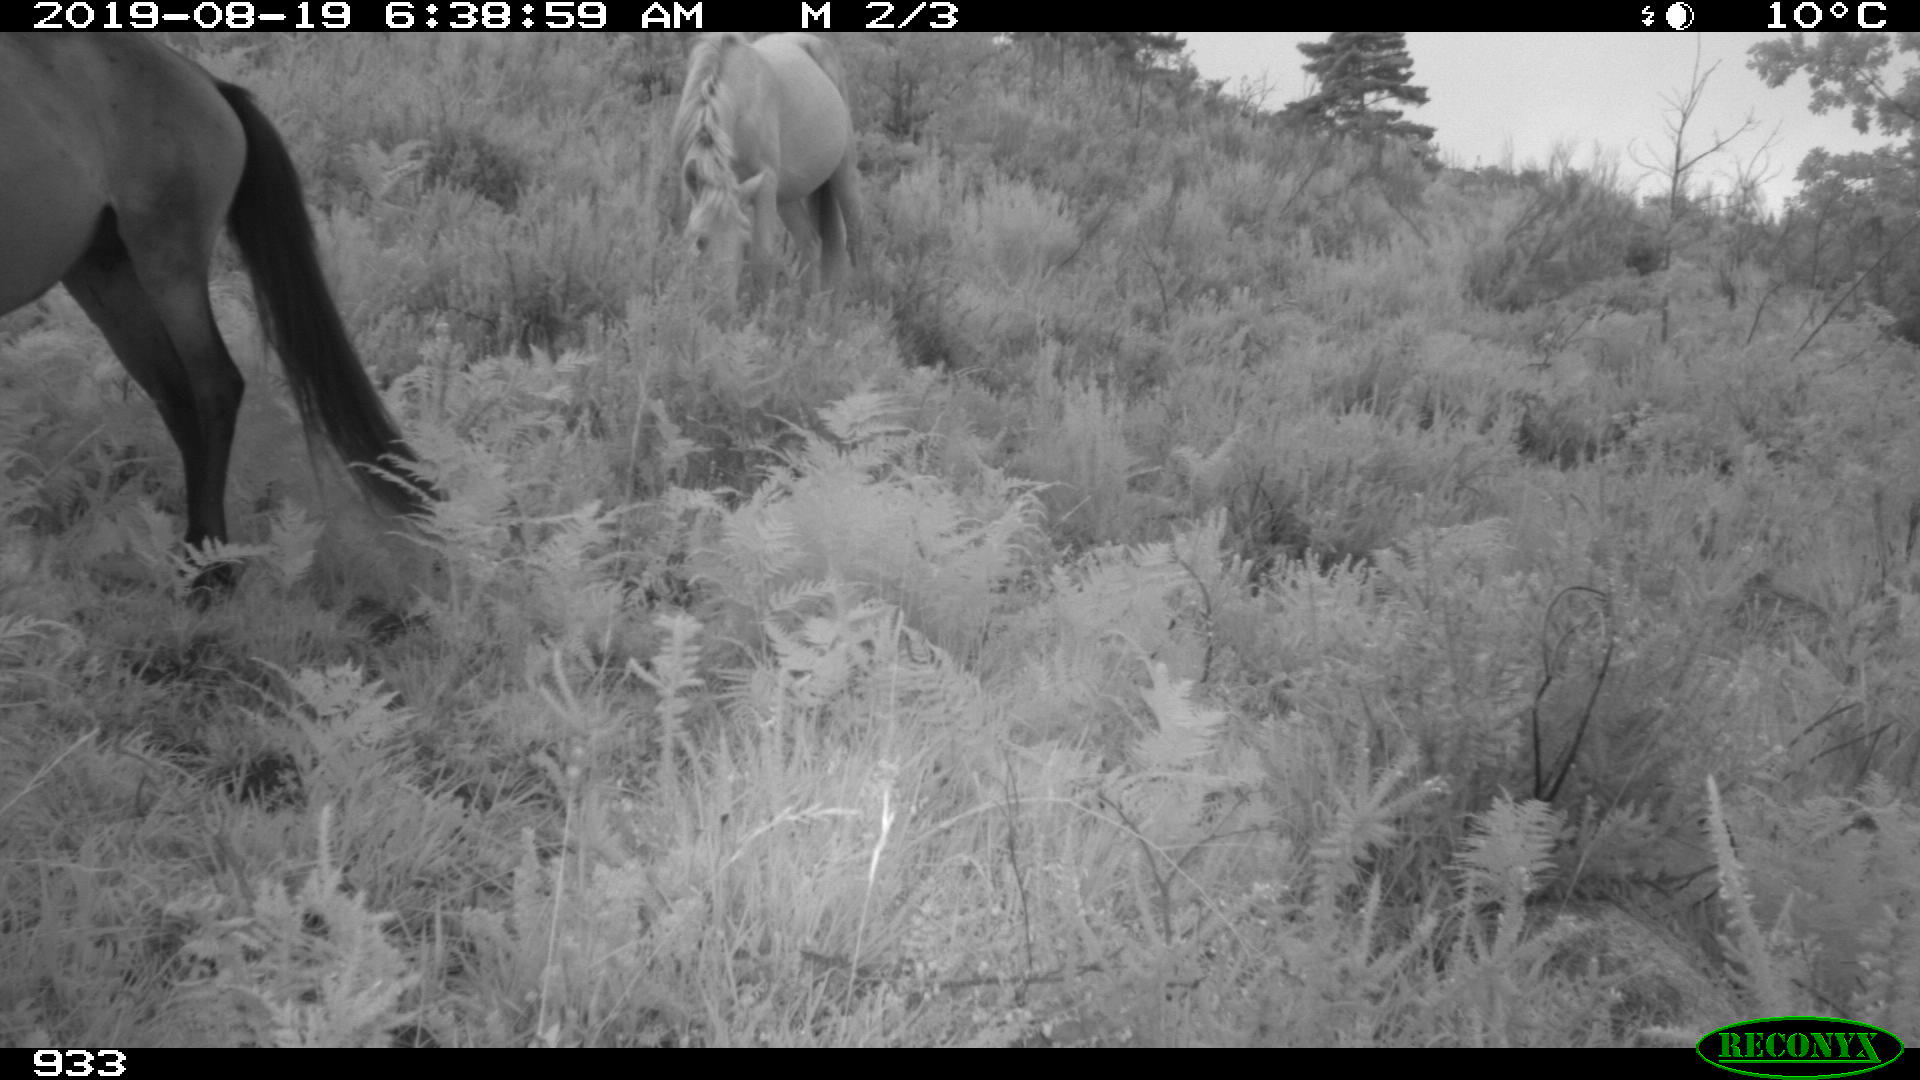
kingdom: Animalia
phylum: Chordata
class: Mammalia
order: Perissodactyla
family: Equidae
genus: Equus
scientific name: Equus caballus
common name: Horse
